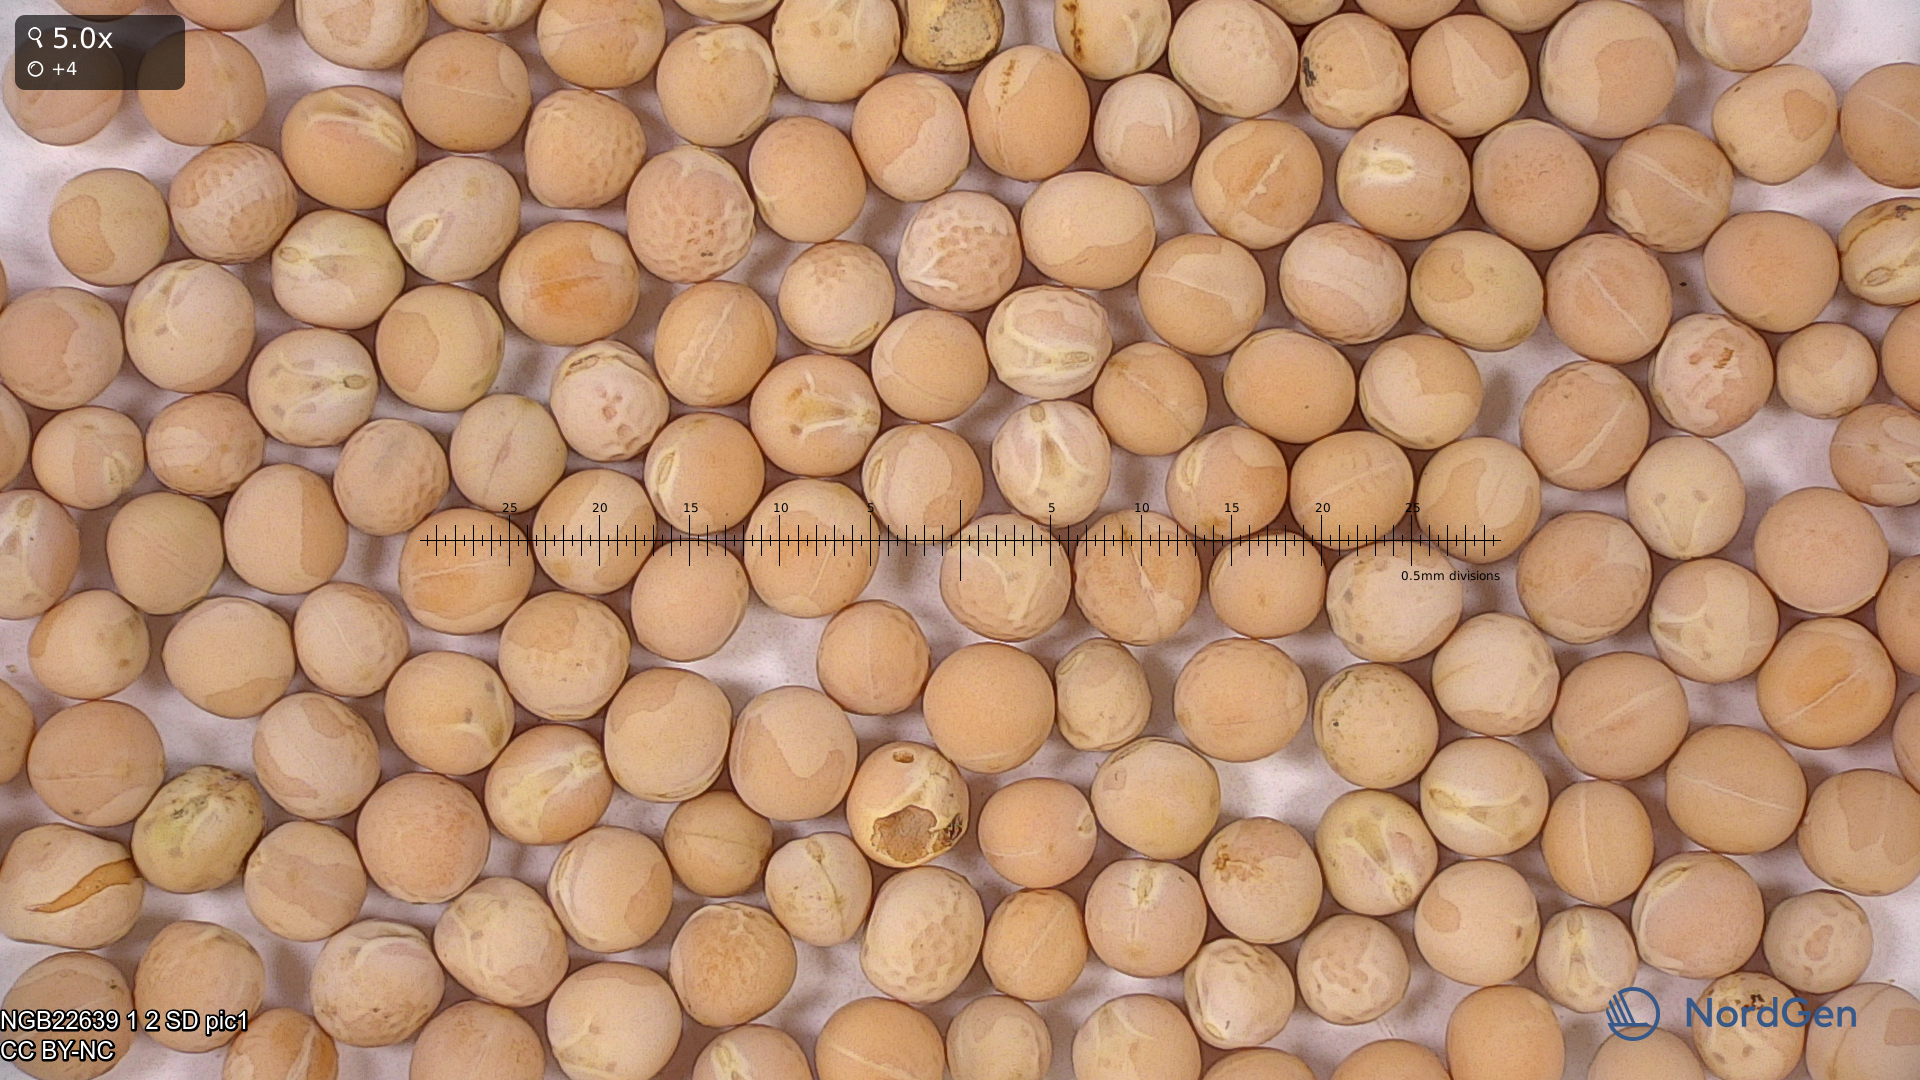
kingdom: Plantae
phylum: Tracheophyta
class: Magnoliopsida
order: Fabales
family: Fabaceae
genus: Lathyrus
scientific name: Lathyrus oleraceus
